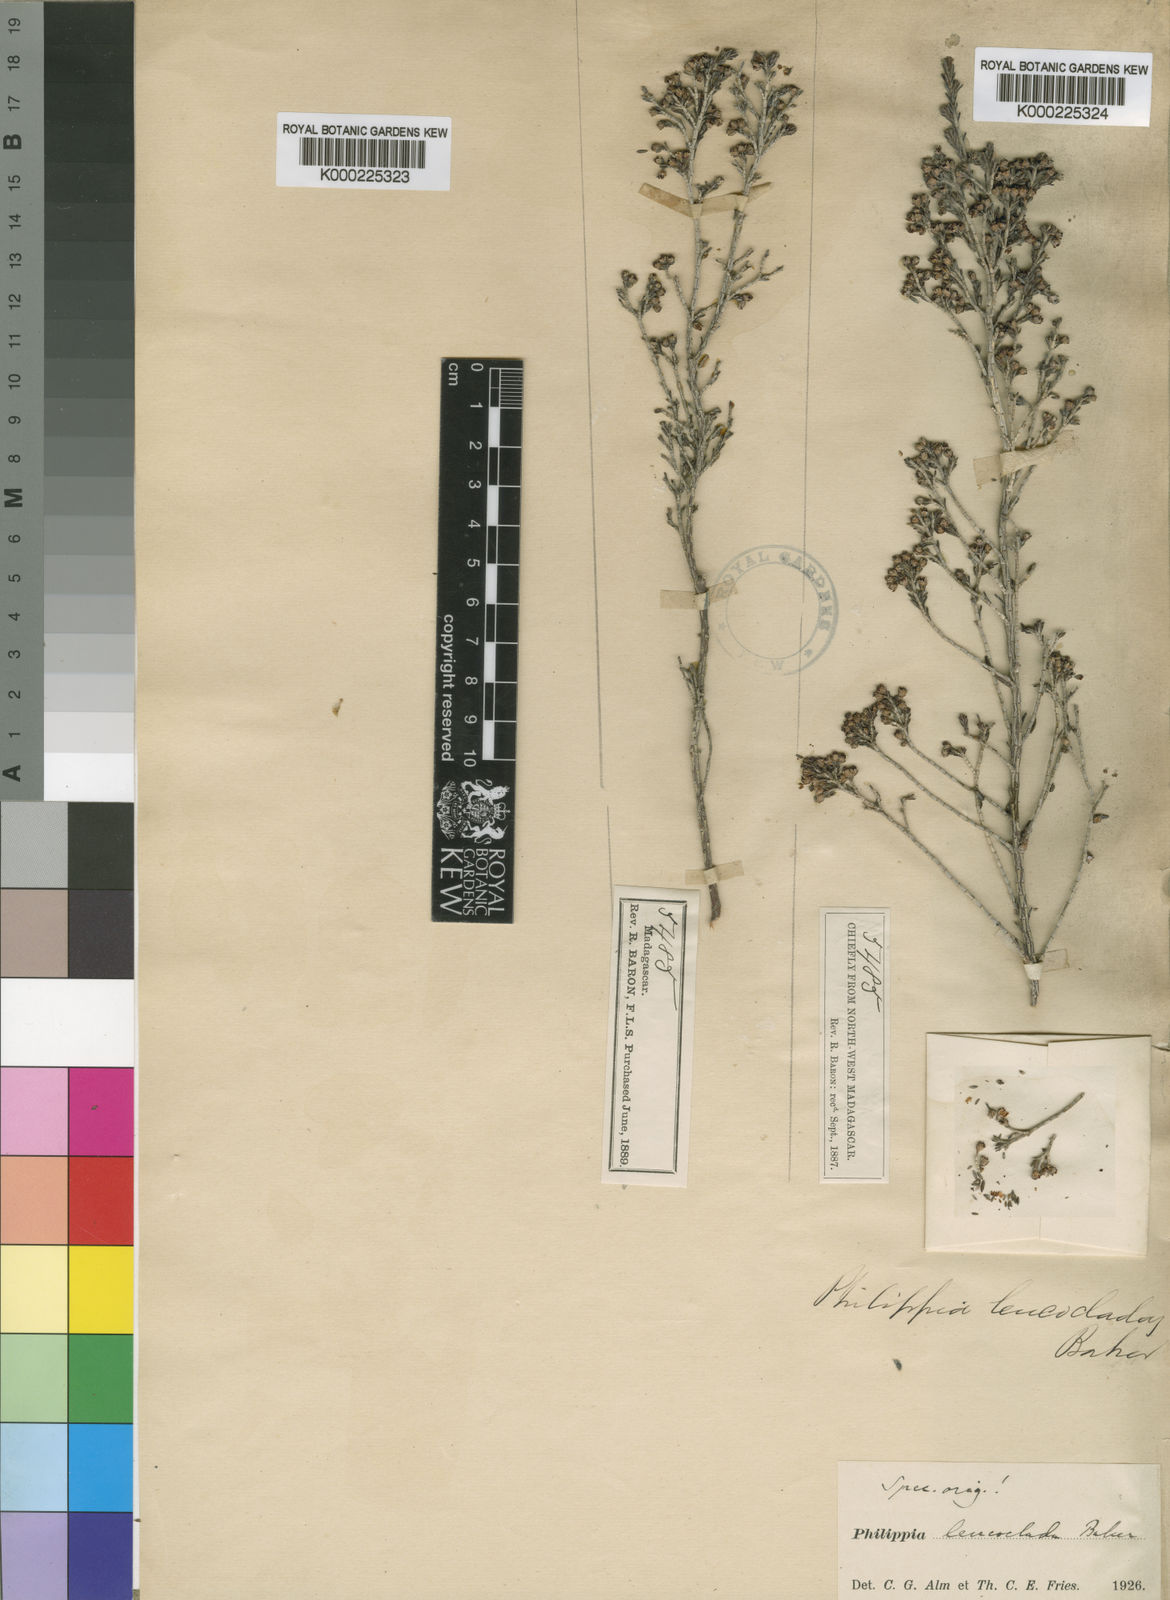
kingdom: Plantae
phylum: Tracheophyta
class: Magnoliopsida
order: Ericales
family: Ericaceae
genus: Erica
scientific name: Erica leucoclada
